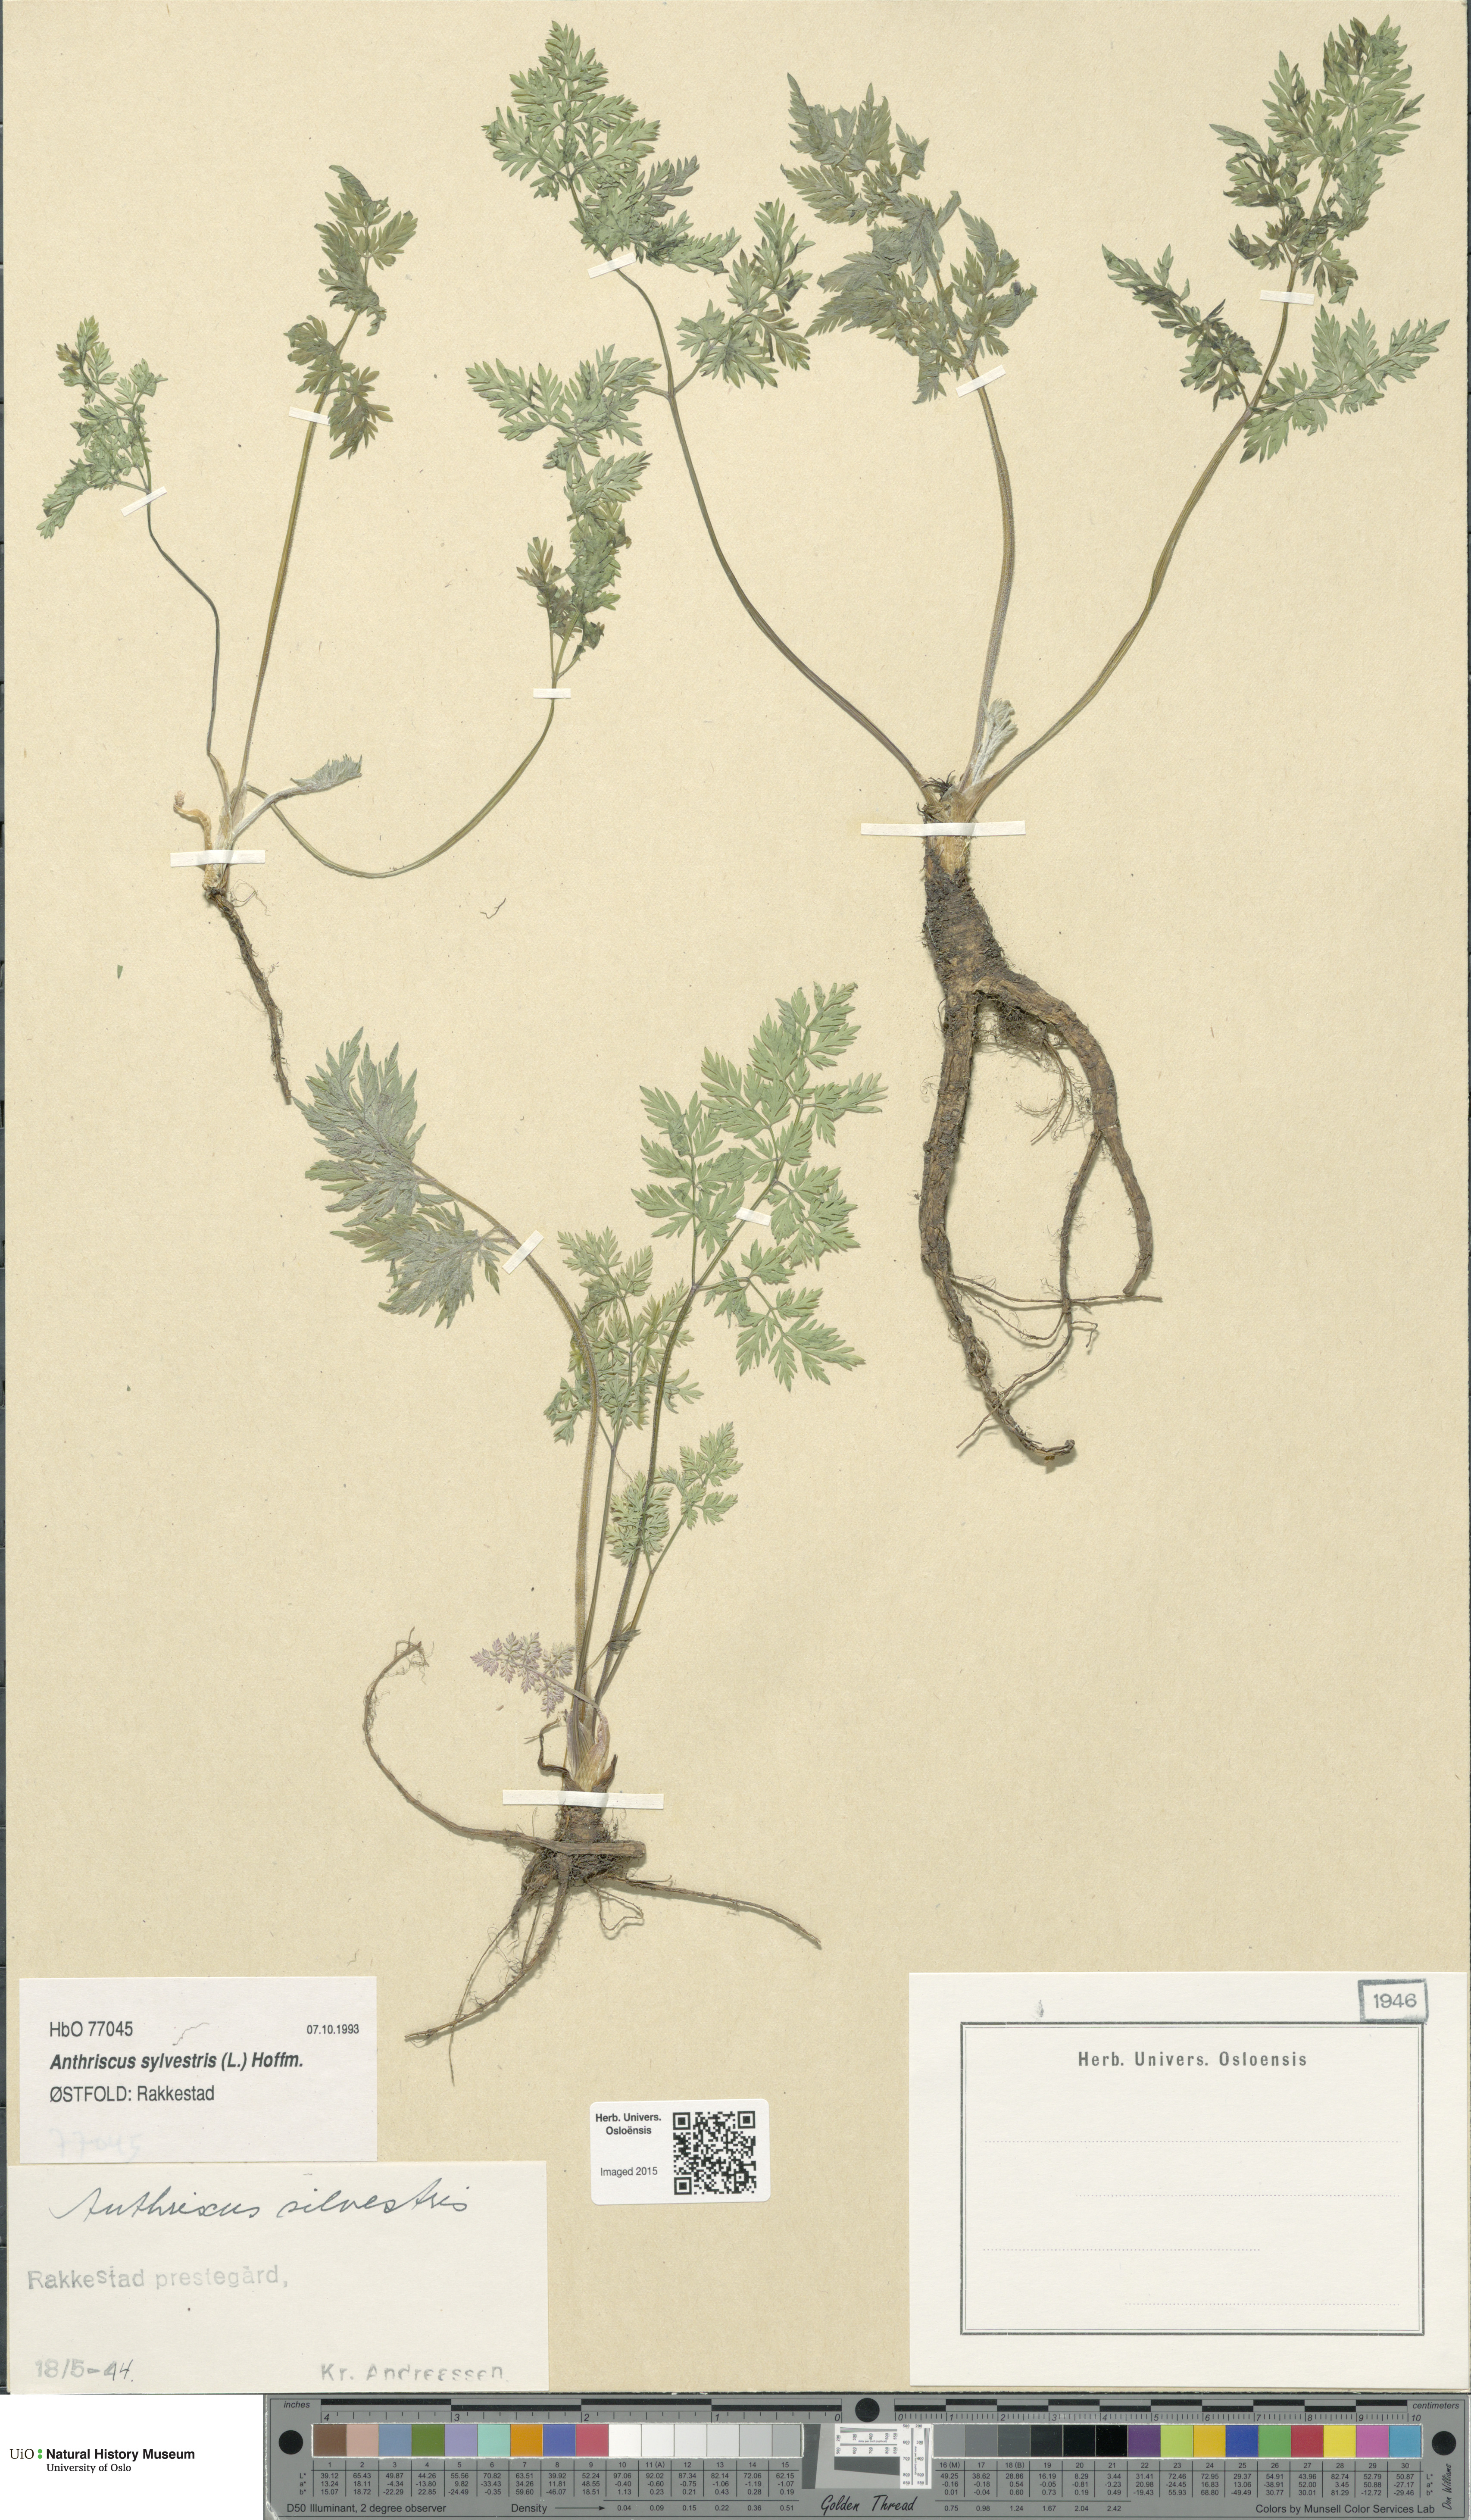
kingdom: Plantae
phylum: Tracheophyta
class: Magnoliopsida
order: Apiales
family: Apiaceae
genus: Anthriscus
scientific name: Anthriscus sylvestris
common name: Cow parsley
